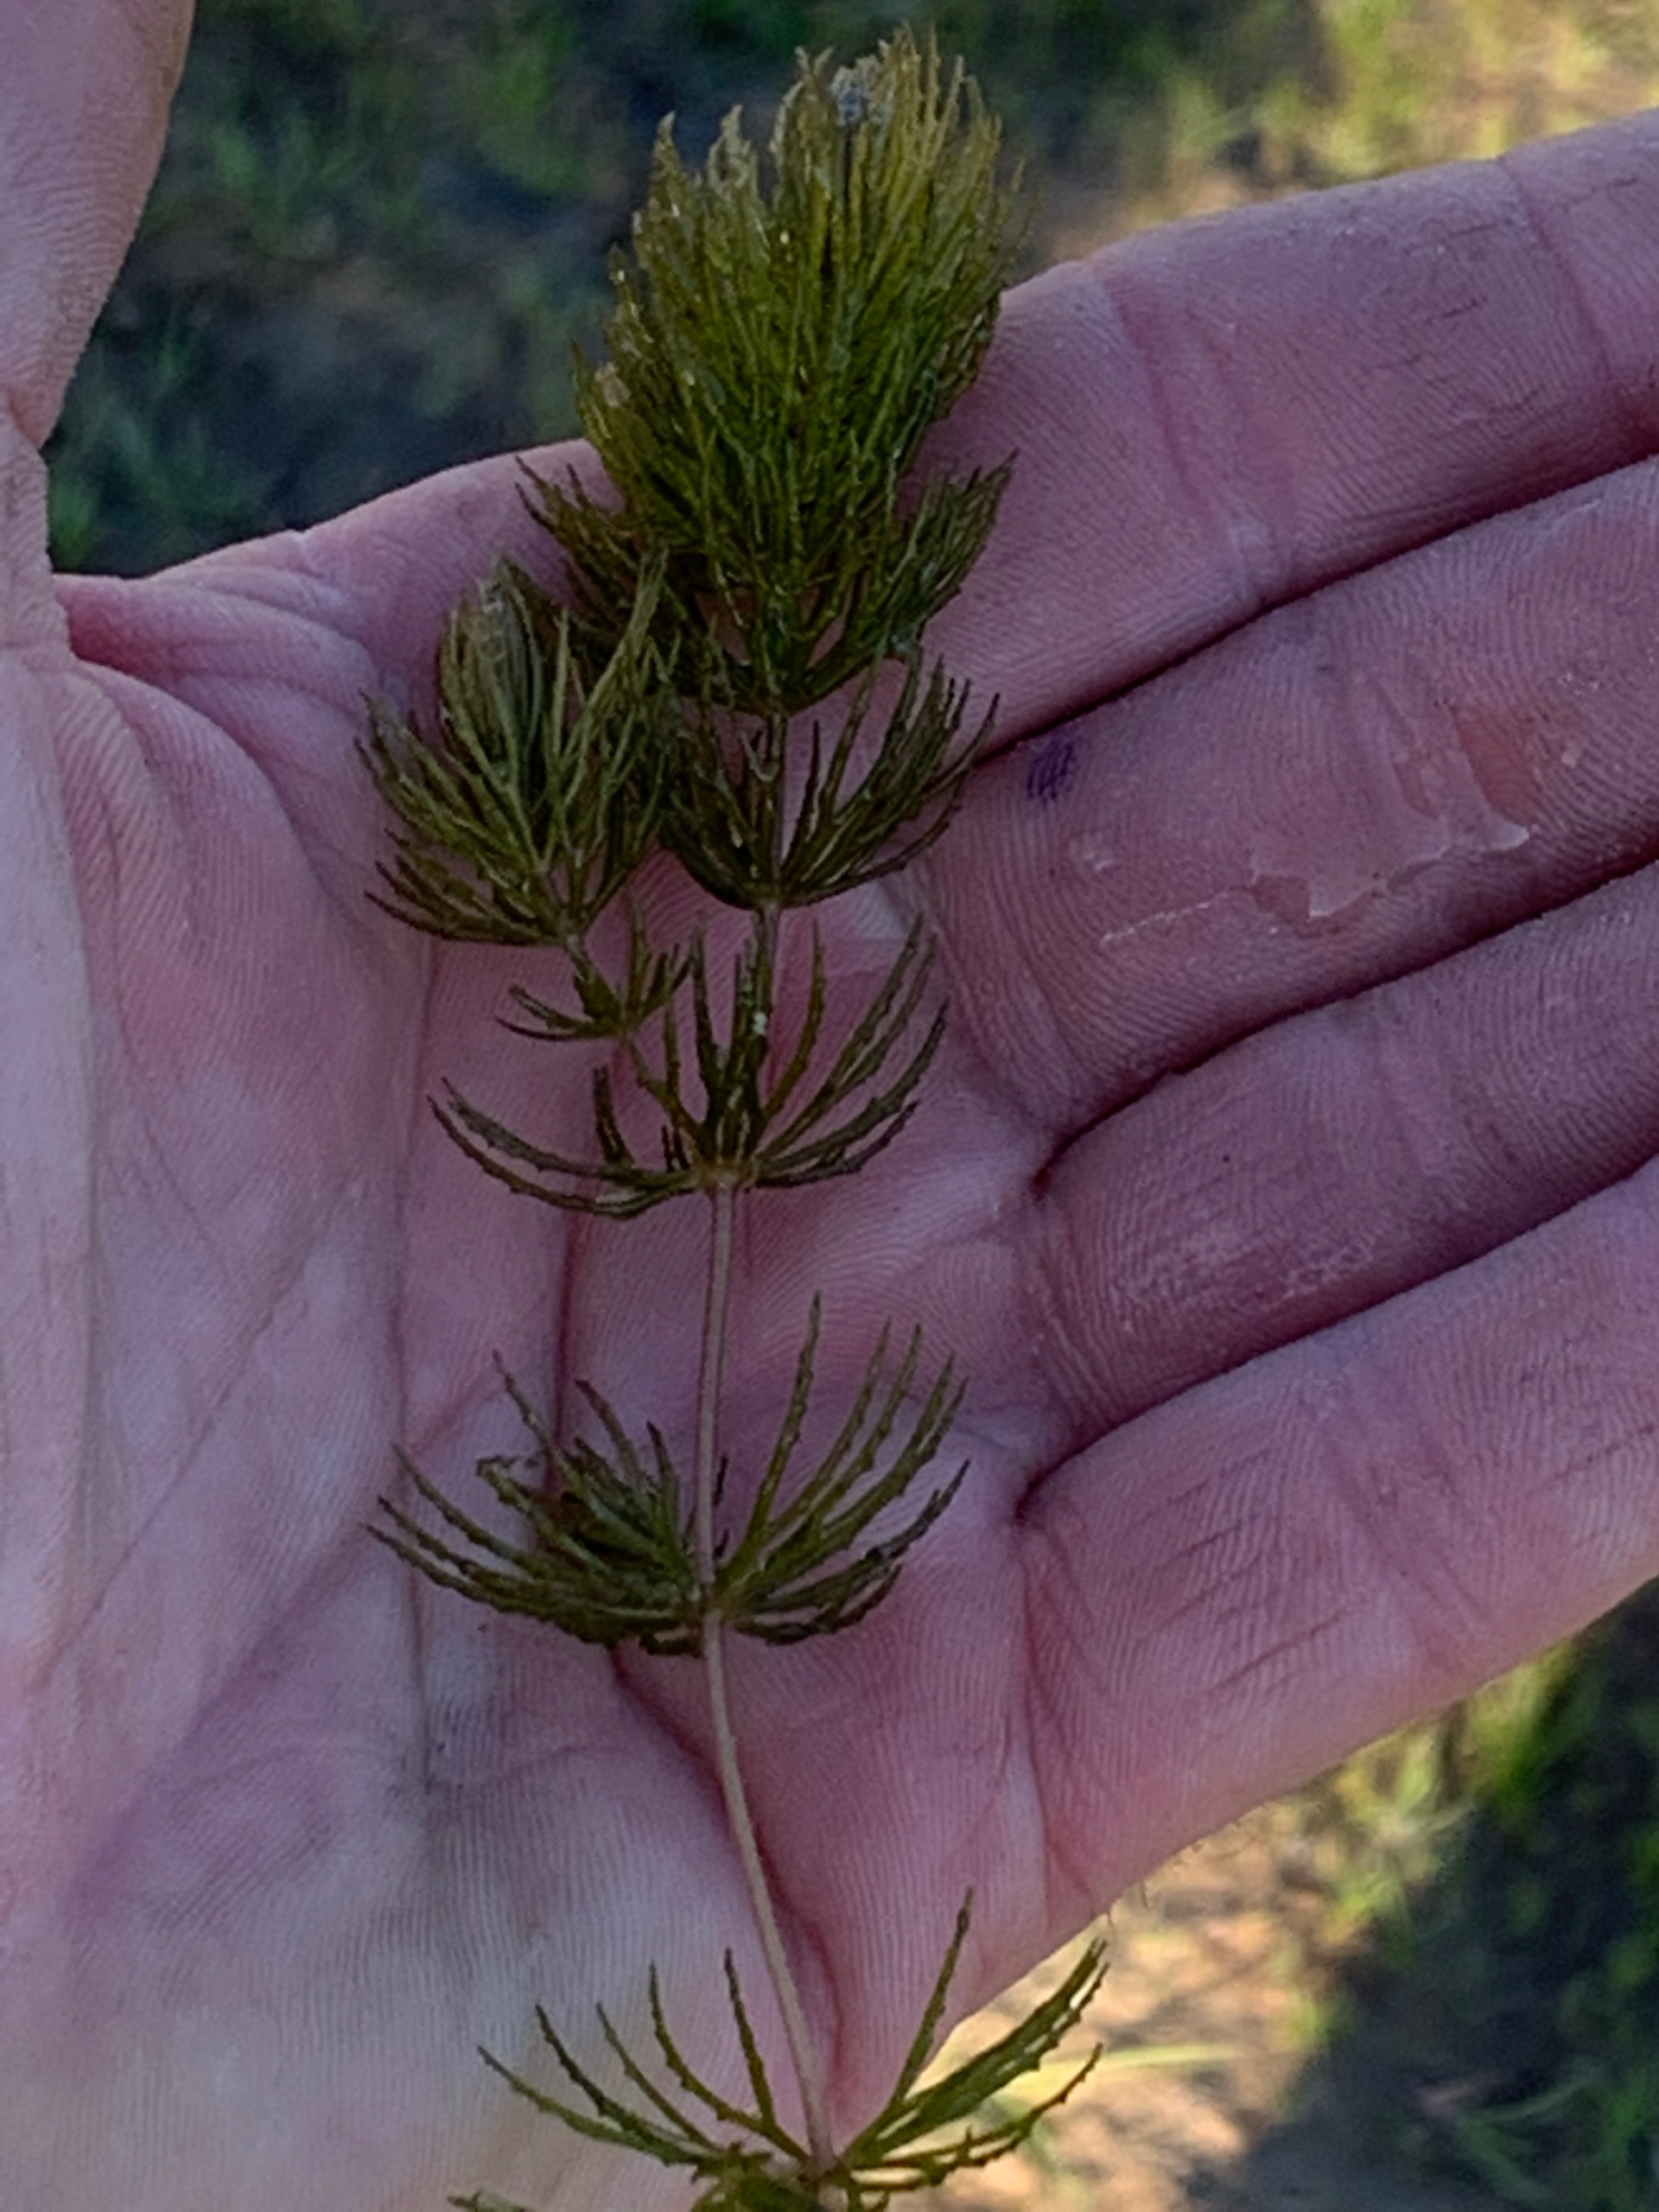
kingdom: Plantae
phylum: Tracheophyta
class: Magnoliopsida
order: Ceratophyllales
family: Ceratophyllaceae
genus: Ceratophyllum
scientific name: Ceratophyllum demersum
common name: Tornfrøet hornblad
